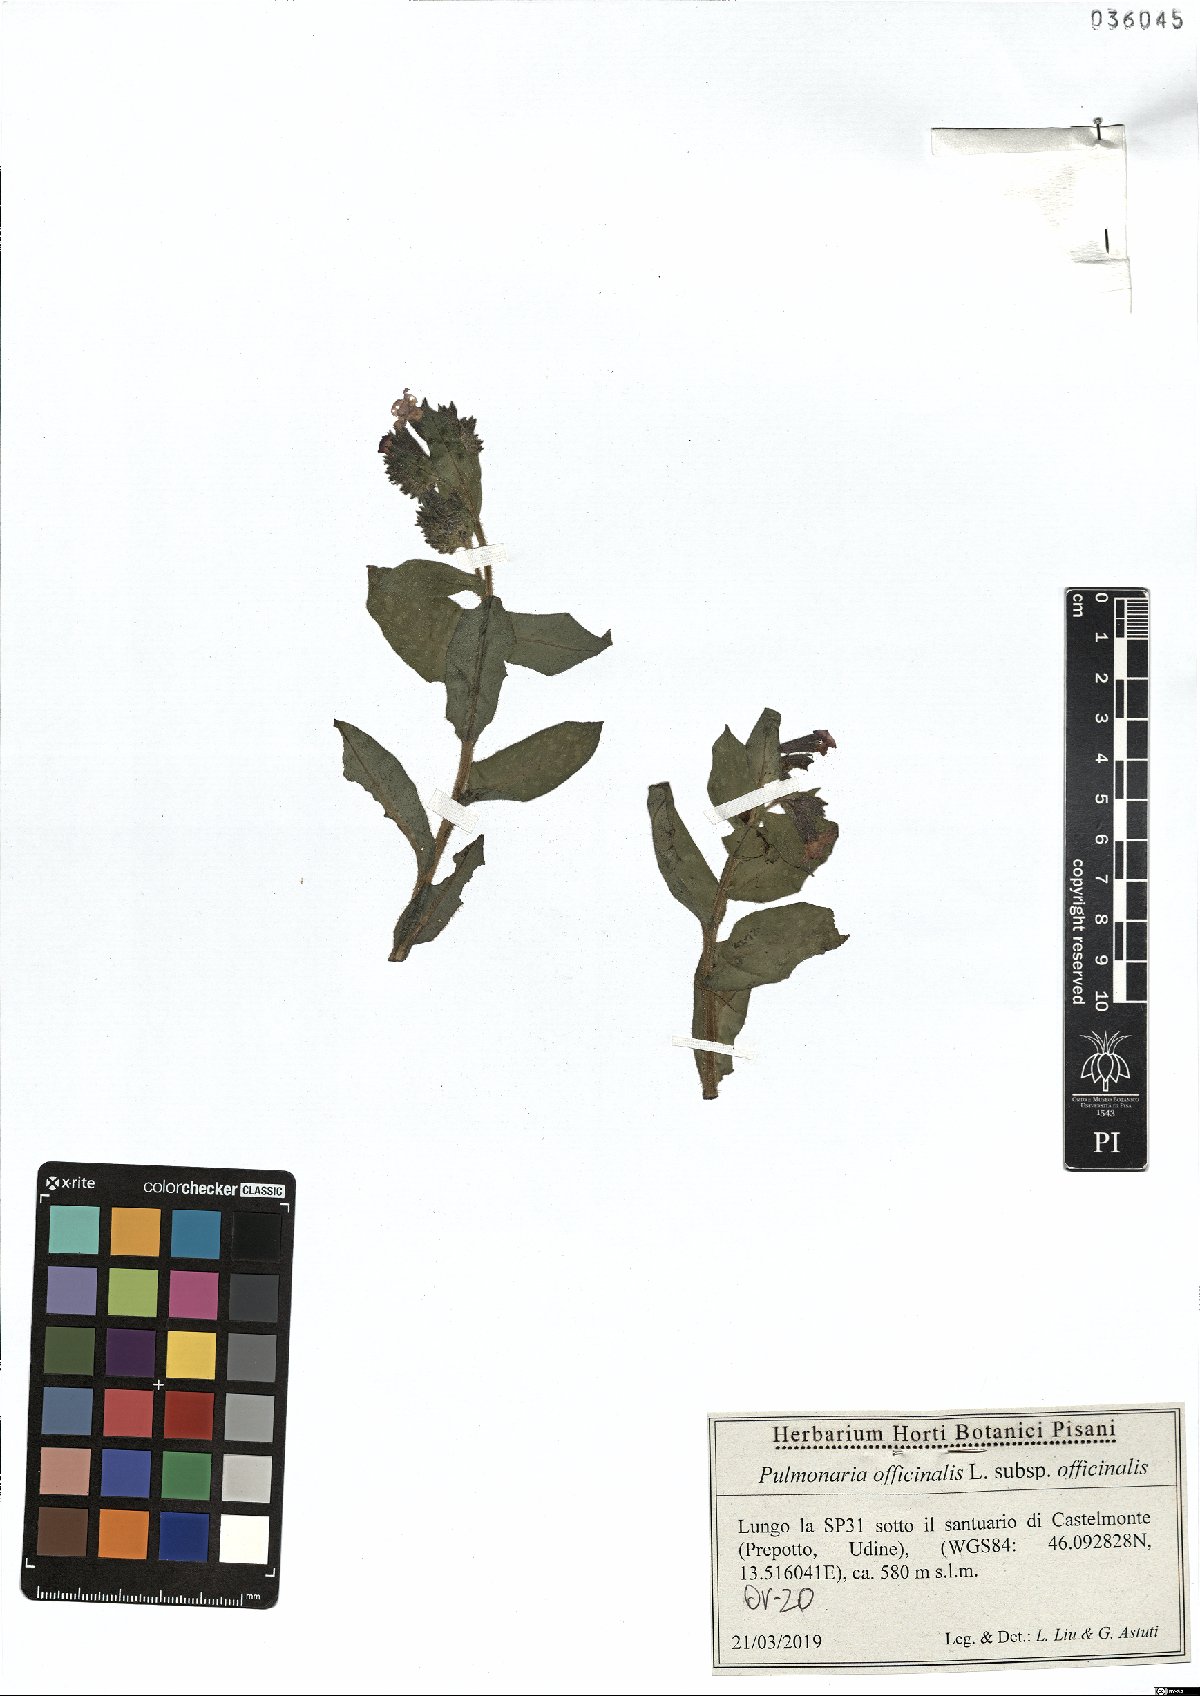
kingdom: Plantae
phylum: Tracheophyta
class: Magnoliopsida
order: Boraginales
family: Boraginaceae
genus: Pulmonaria
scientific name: Pulmonaria officinalis
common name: Lungwort
